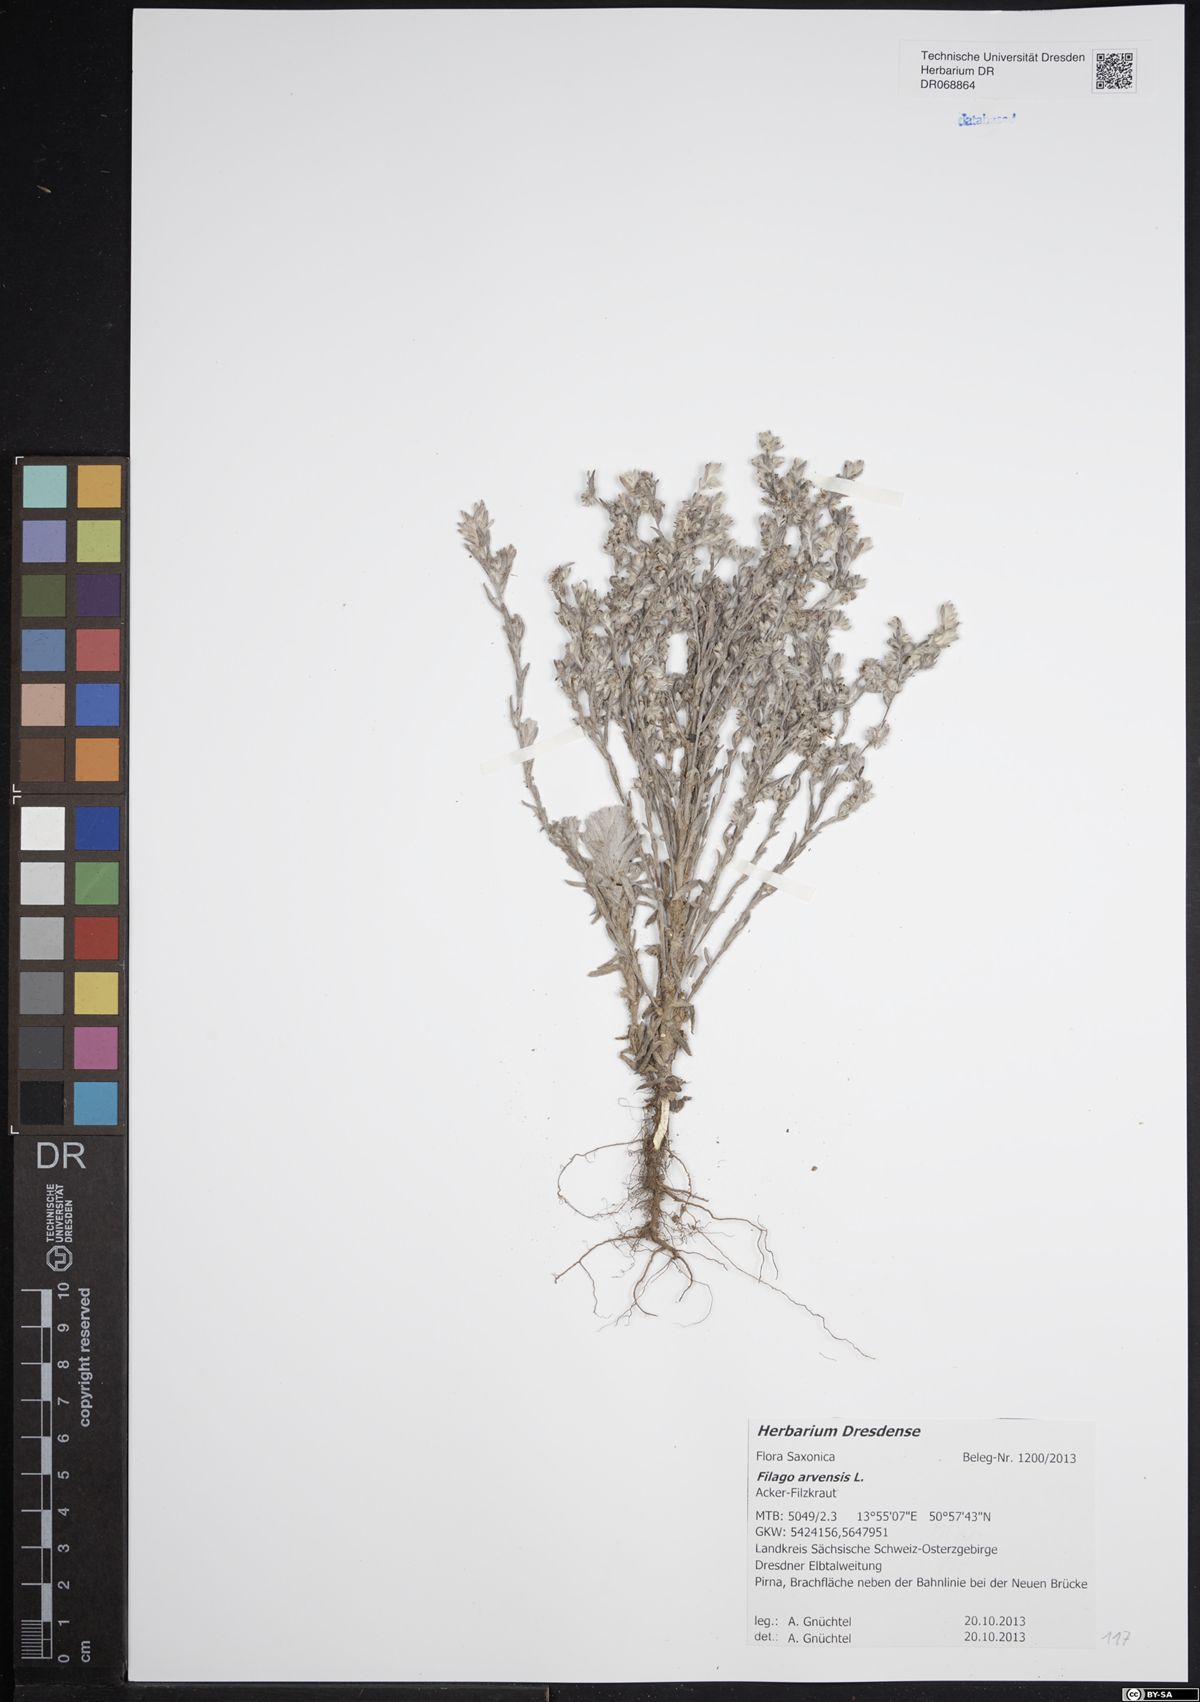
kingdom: Plantae
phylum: Tracheophyta
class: Magnoliopsida
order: Asterales
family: Asteraceae
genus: Filago
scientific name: Filago arvensis
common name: Field cudweed
